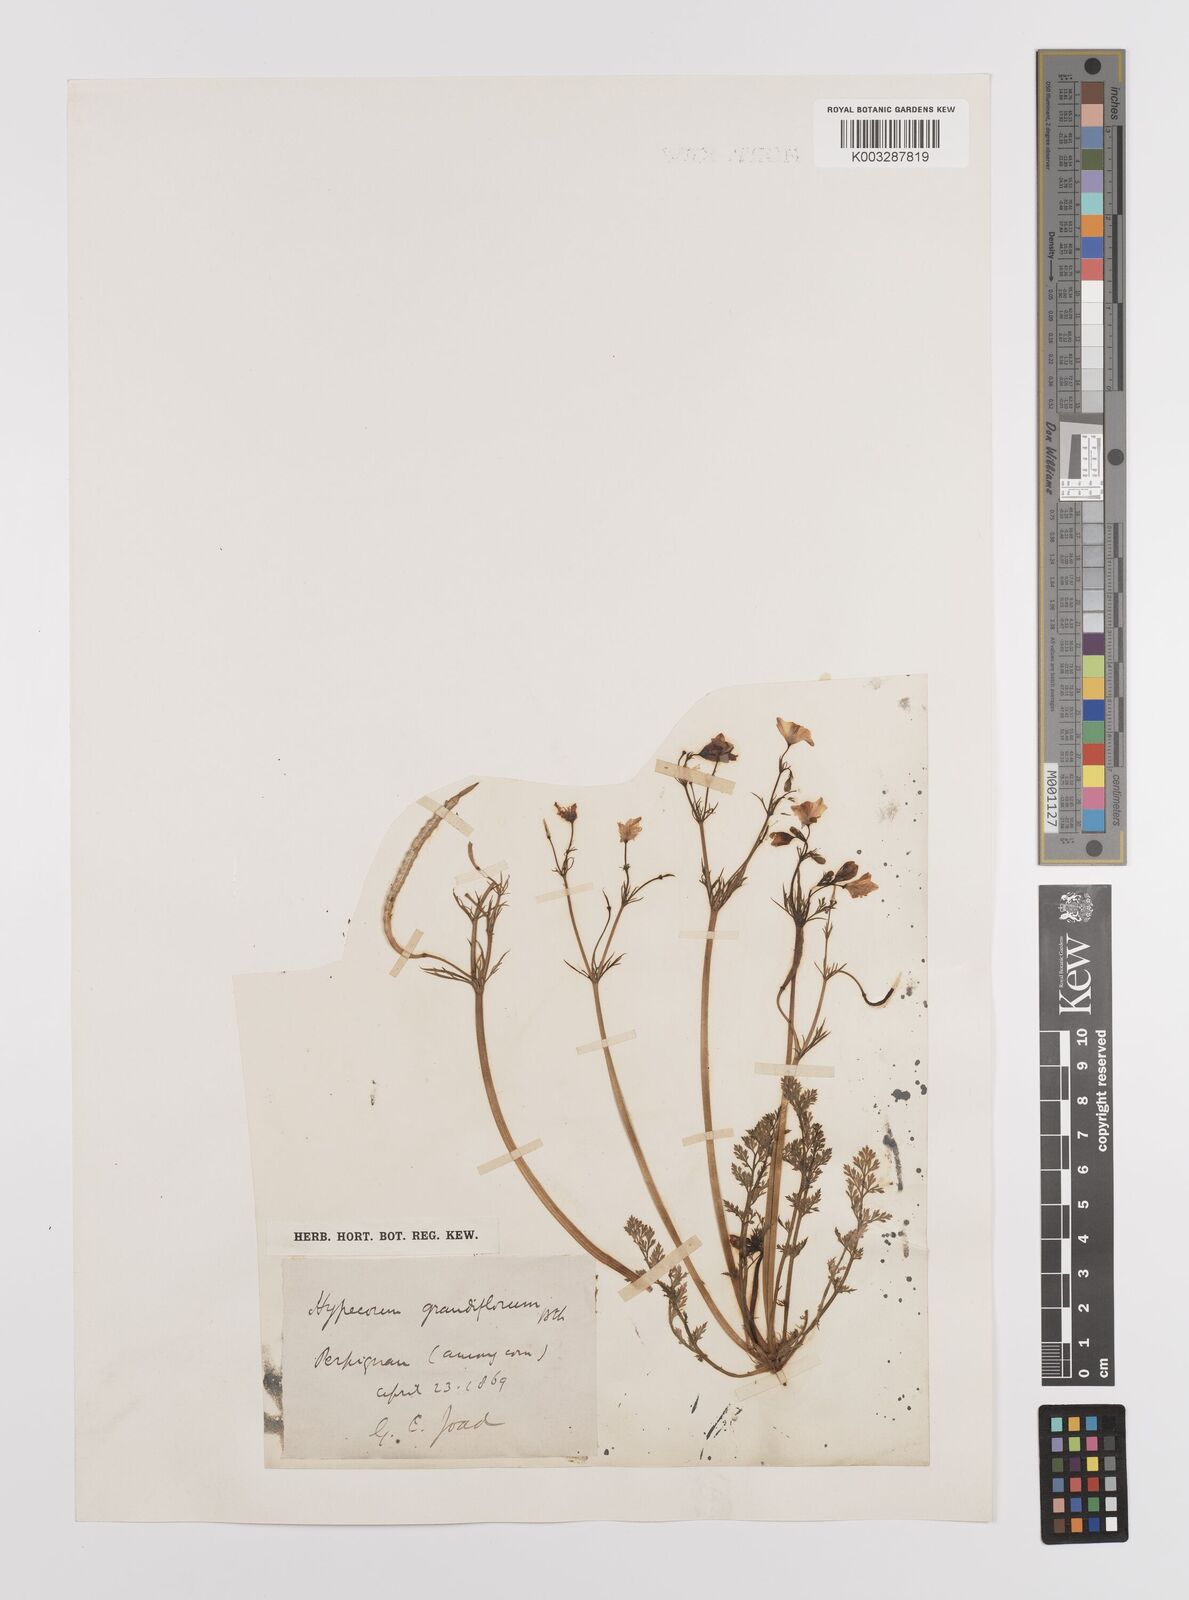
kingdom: Plantae
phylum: Tracheophyta
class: Magnoliopsida
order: Ranunculales
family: Papaveraceae
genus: Hypecoum
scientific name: Hypecoum imberbe
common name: Sicklefruit hypecoum
